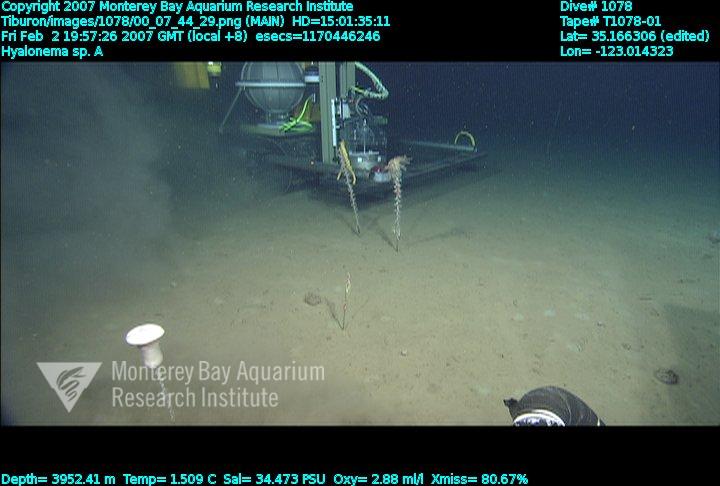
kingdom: Animalia
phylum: Porifera
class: Hexactinellida
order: Amphidiscosida
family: Hyalonematidae
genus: Hyalonema
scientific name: Hyalonema
